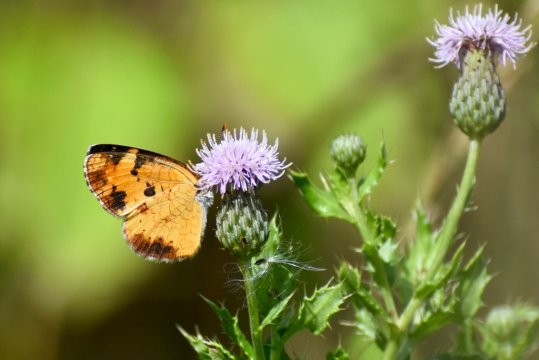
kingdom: Animalia
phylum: Arthropoda
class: Insecta
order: Lepidoptera
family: Nymphalidae
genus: Phyciodes
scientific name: Phyciodes
